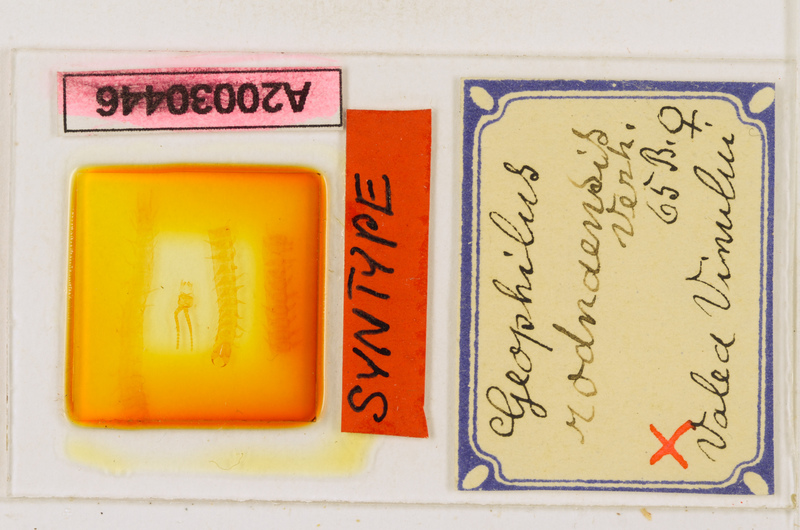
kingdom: Animalia
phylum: Arthropoda
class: Chilopoda
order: Geophilomorpha
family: Geophilidae
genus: Clinopodes
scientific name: Clinopodes rodnaensis
